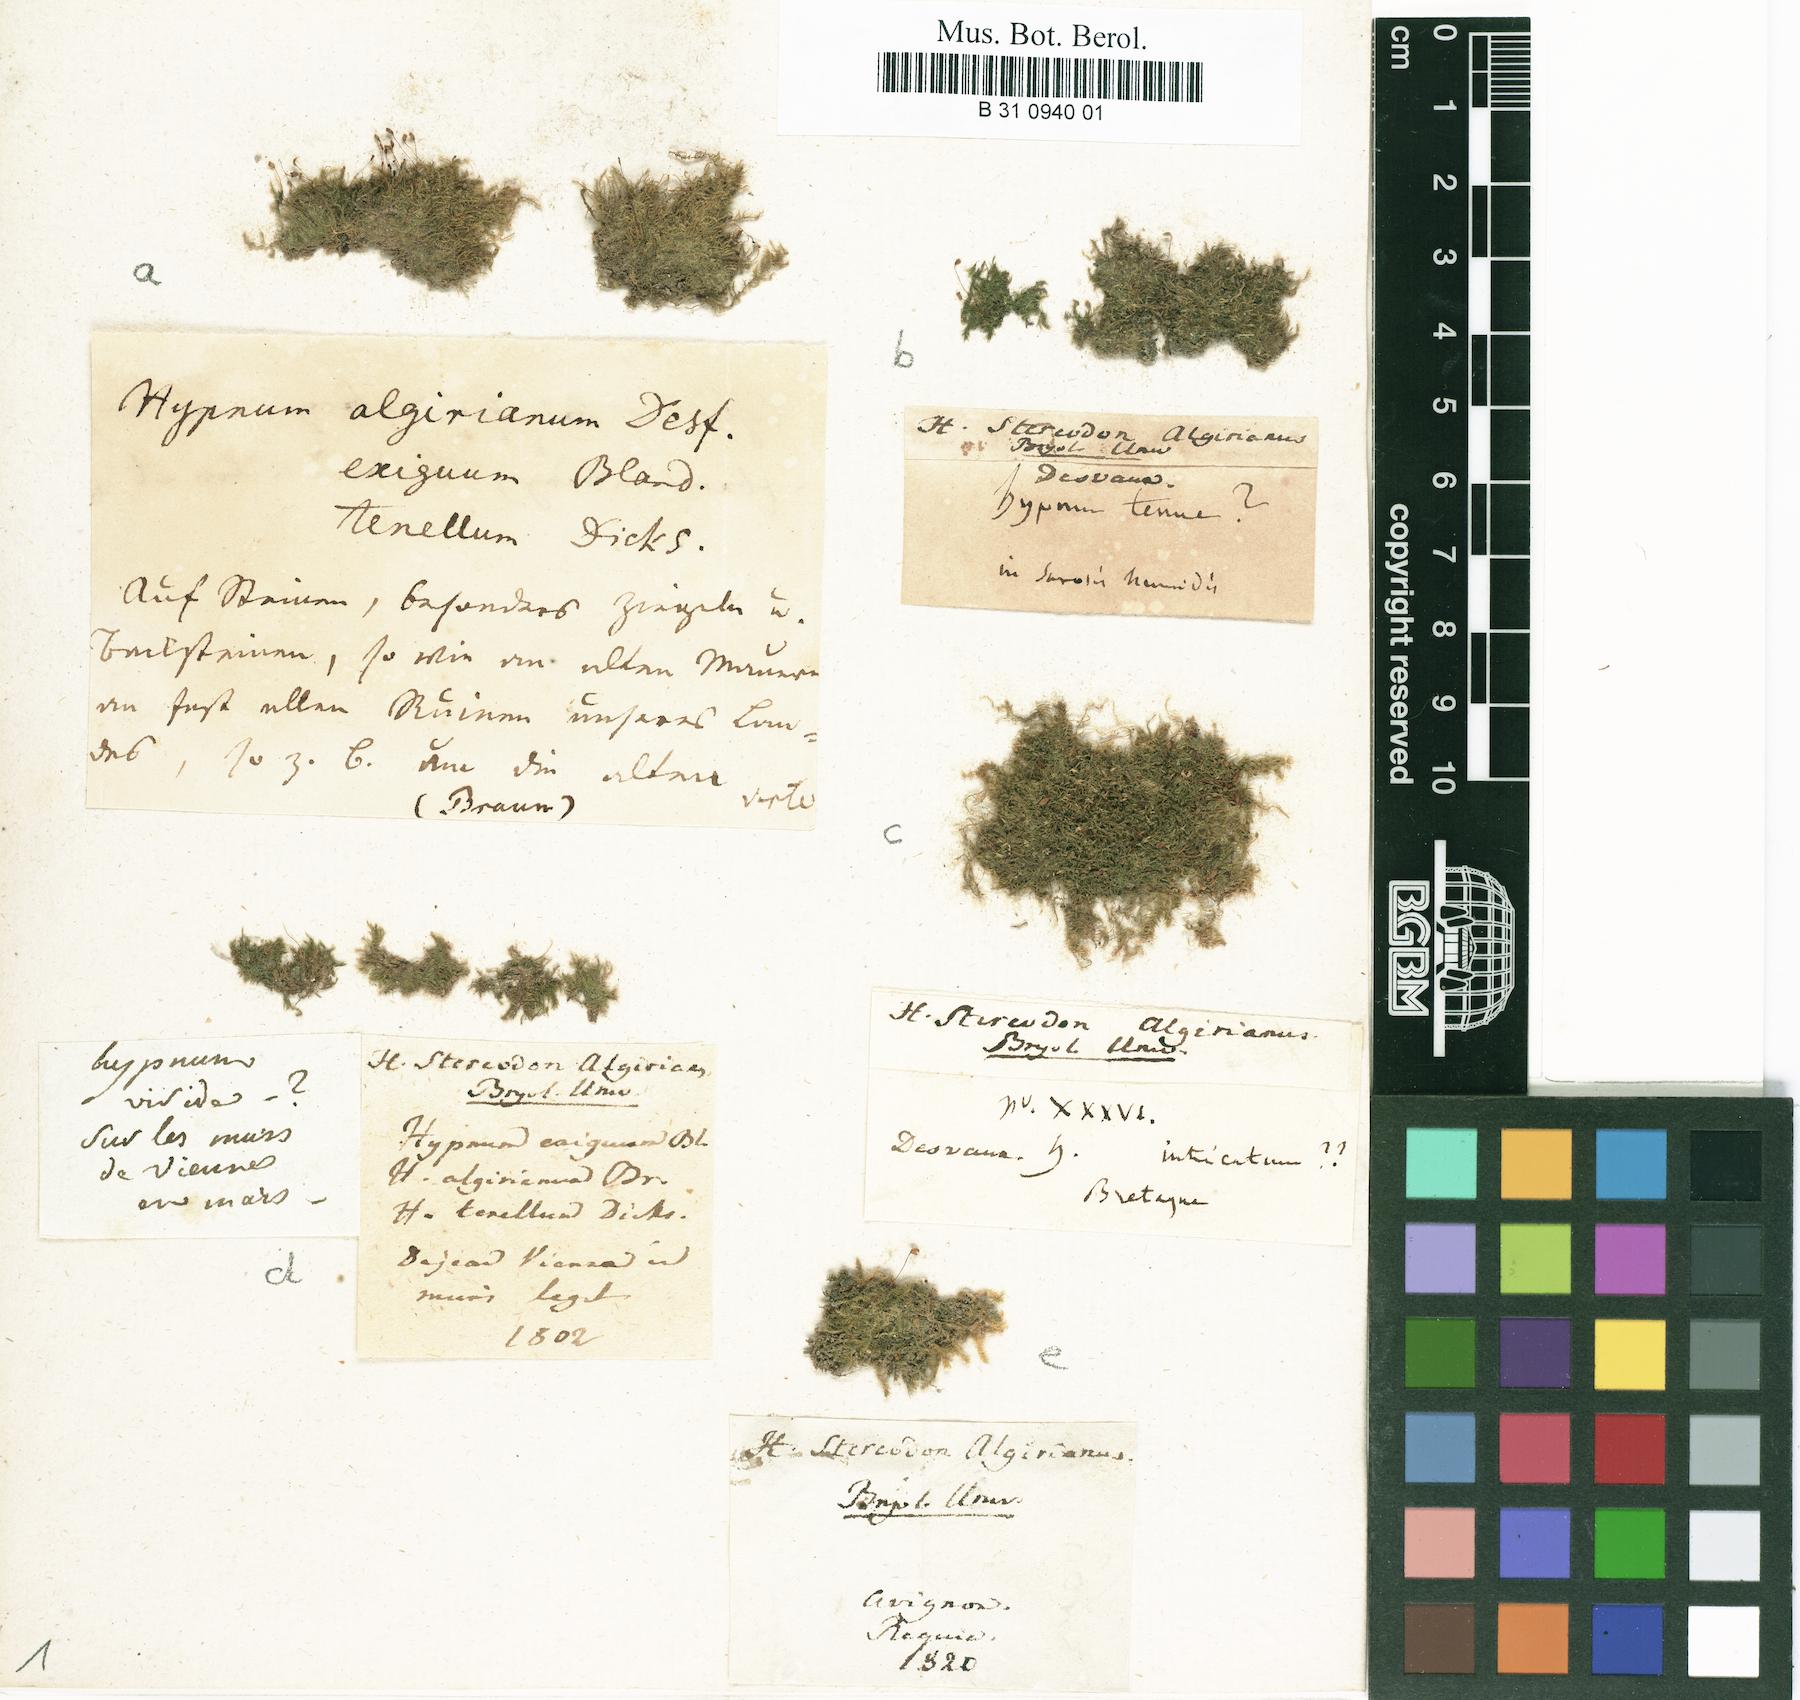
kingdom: Plantae
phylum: Bryophyta
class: Bryopsida
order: Hypnales
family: Brachytheciaceae
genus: Rhynchostegiella
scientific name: Rhynchostegiella curviseta
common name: Curve-stalked feather-moss
